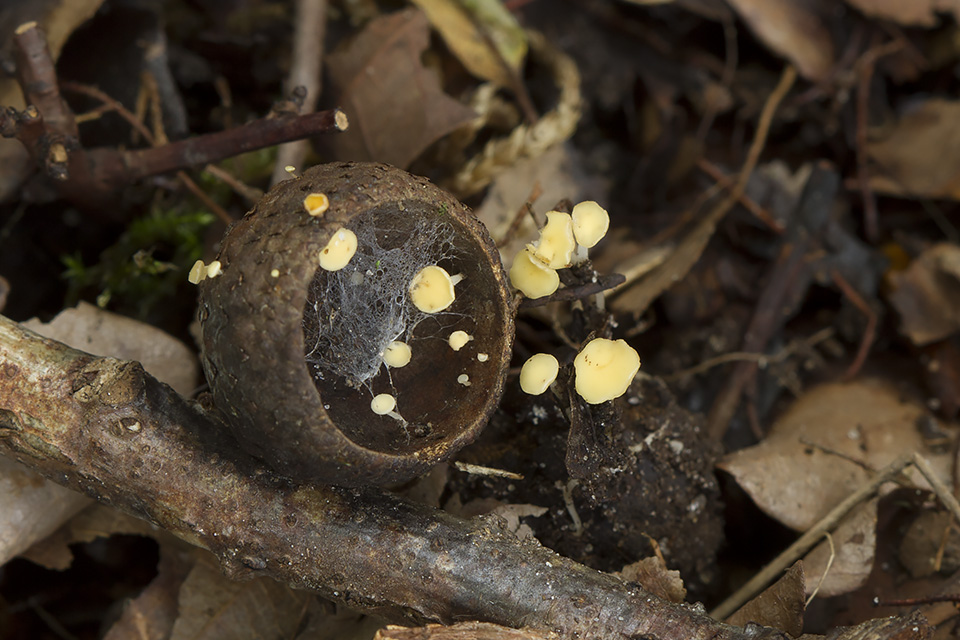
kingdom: Fungi
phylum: Ascomycota
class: Leotiomycetes
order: Helotiales
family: Helotiaceae
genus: Hymenoscyphus
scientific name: Hymenoscyphus fructigenus
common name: frugt-stilkskive
